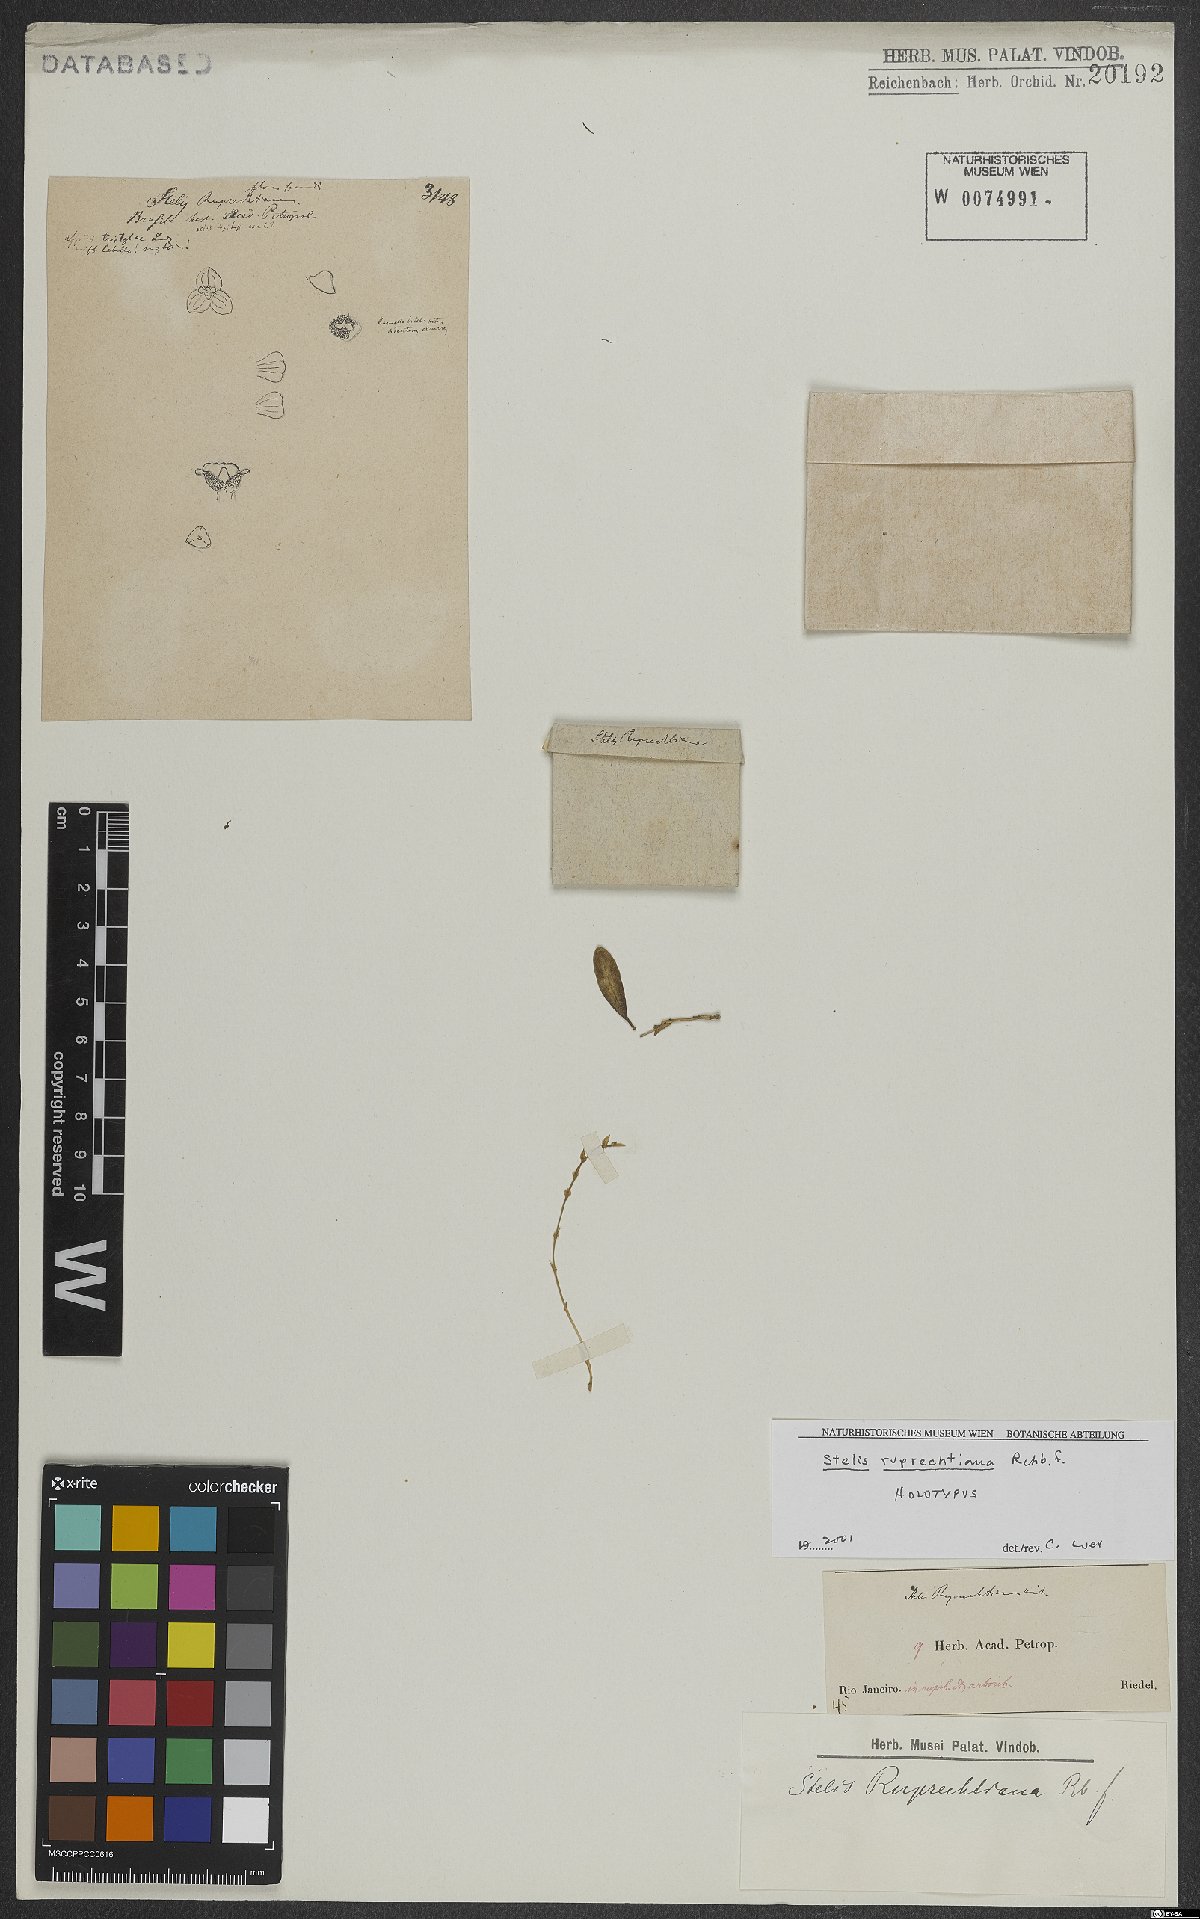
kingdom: Plantae
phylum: Tracheophyta
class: Liliopsida
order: Asparagales
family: Orchidaceae
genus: Stelis
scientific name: Stelis ruprechtiana
